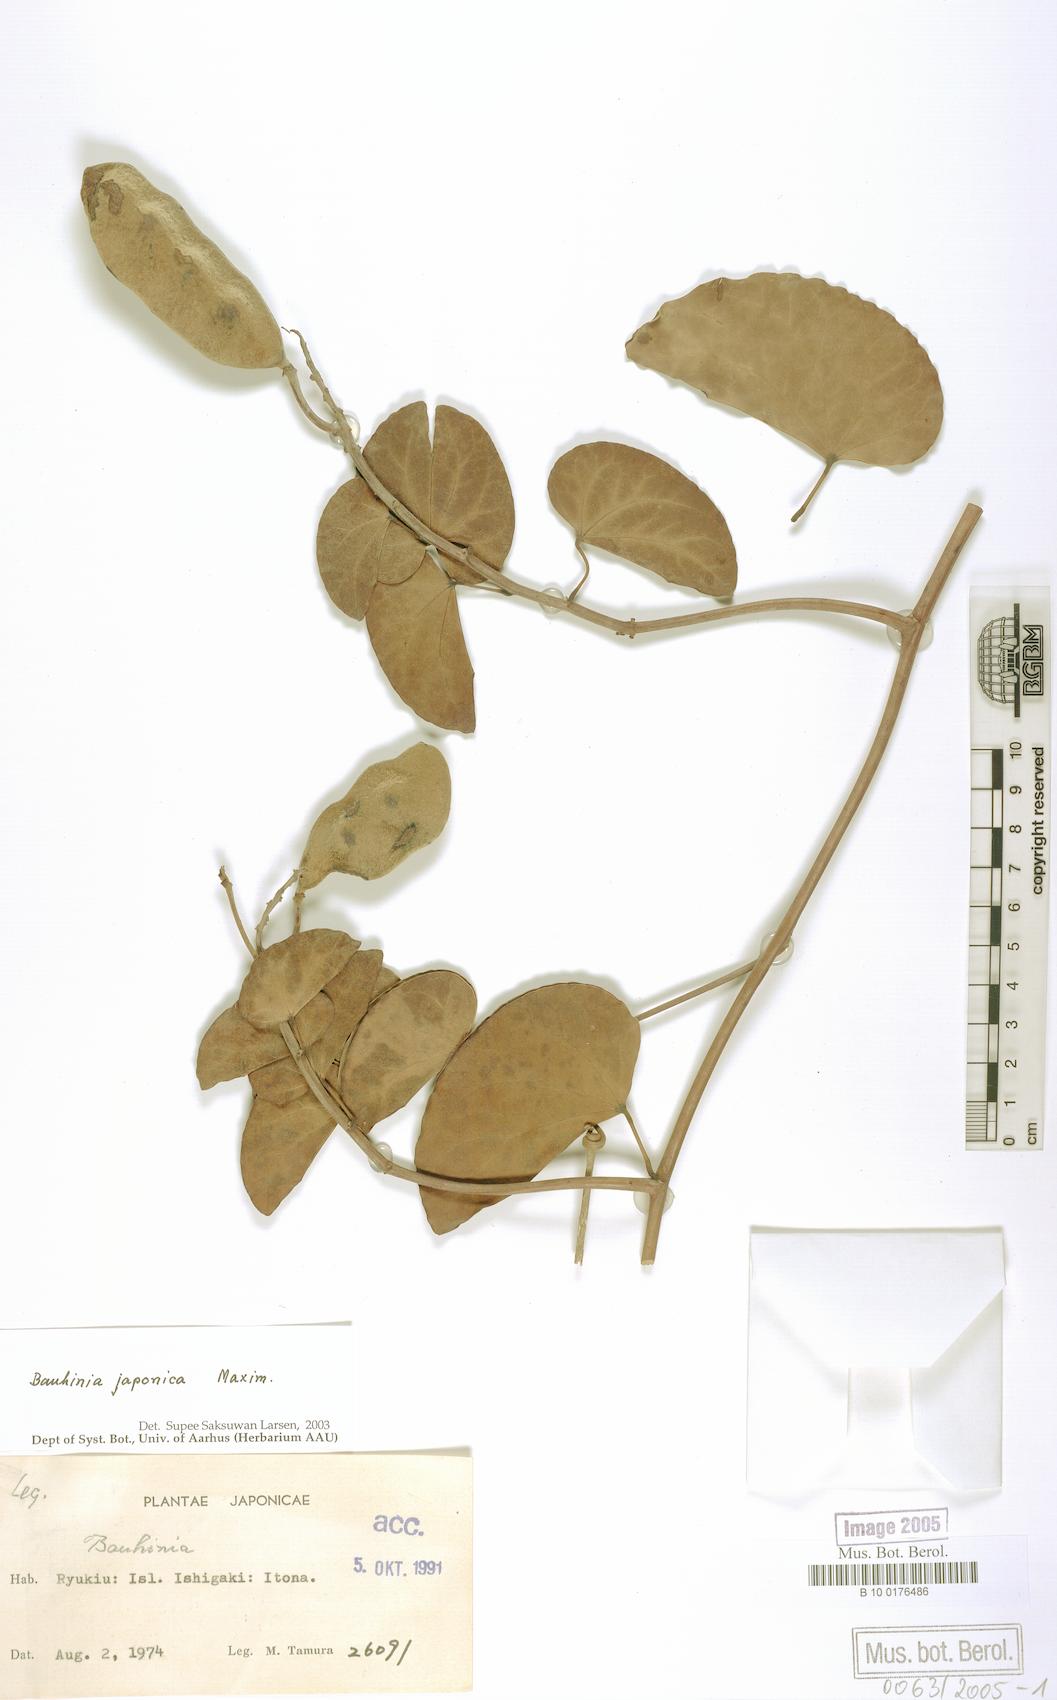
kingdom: Plantae
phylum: Tracheophyta
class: Magnoliopsida
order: Fabales
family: Fabaceae
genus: Phanera
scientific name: Phanera japonica
